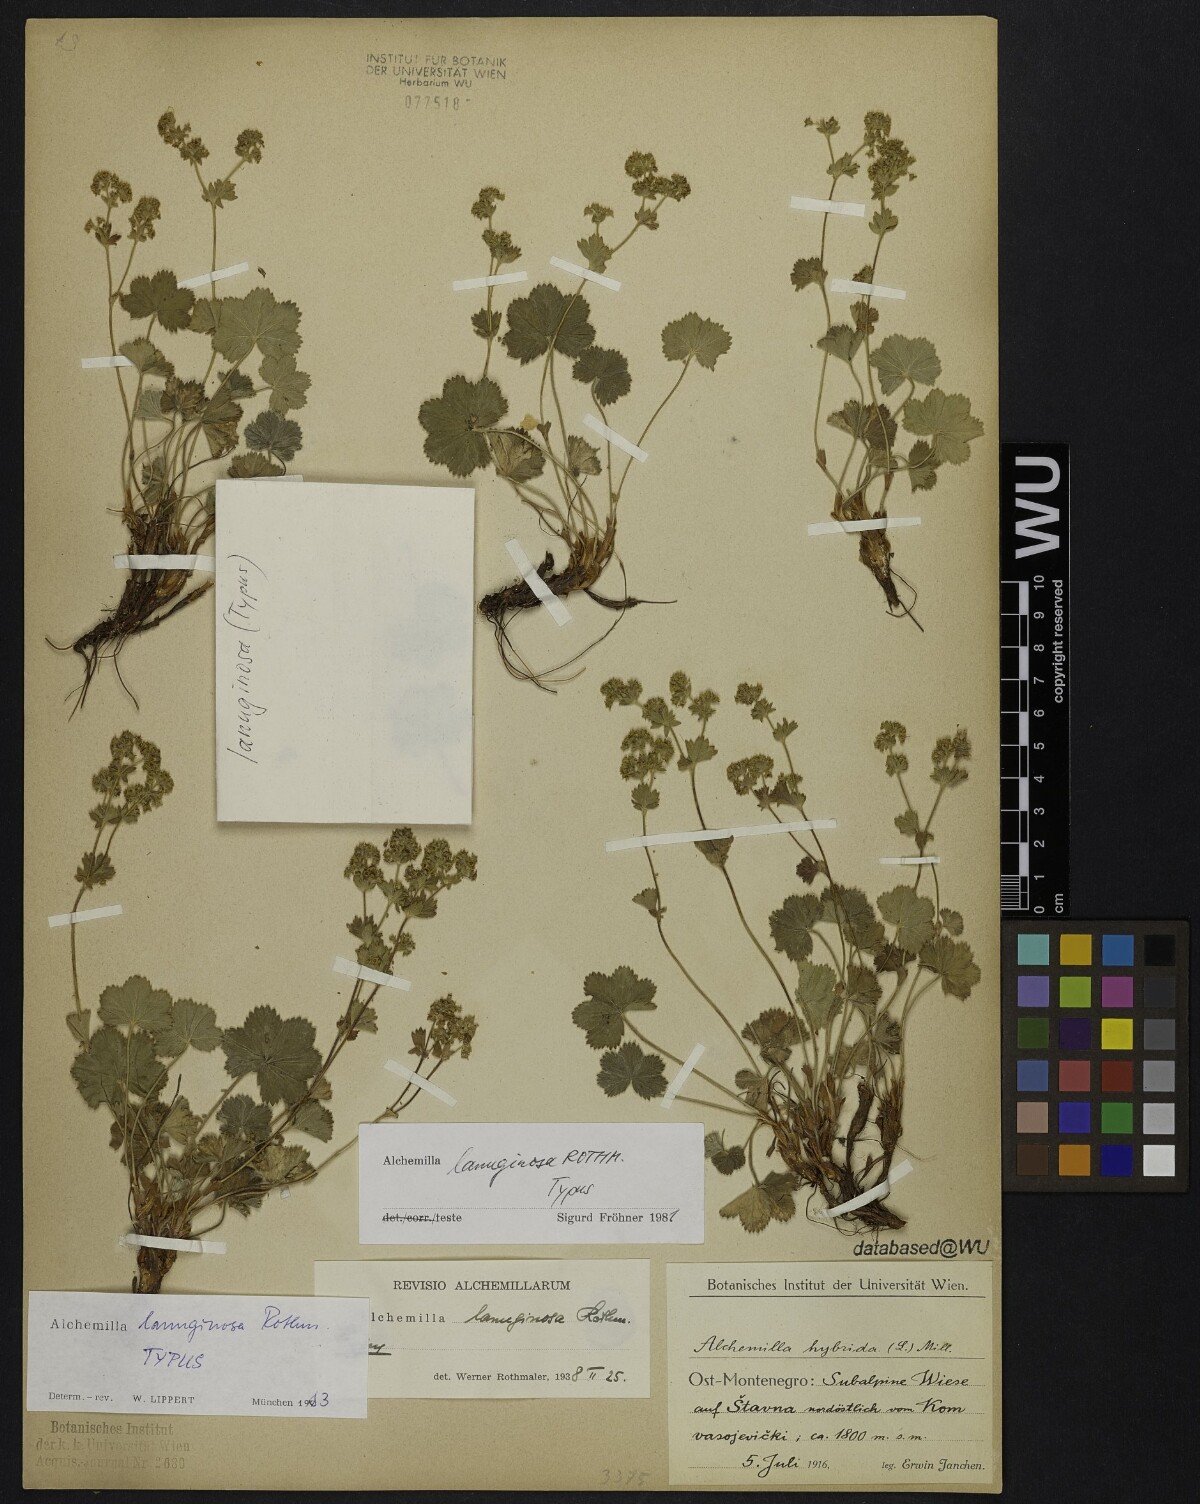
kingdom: Plantae
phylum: Tracheophyta
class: Magnoliopsida
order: Rosales
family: Rosaceae
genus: Alchemilla
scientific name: Alchemilla lanuginosa
